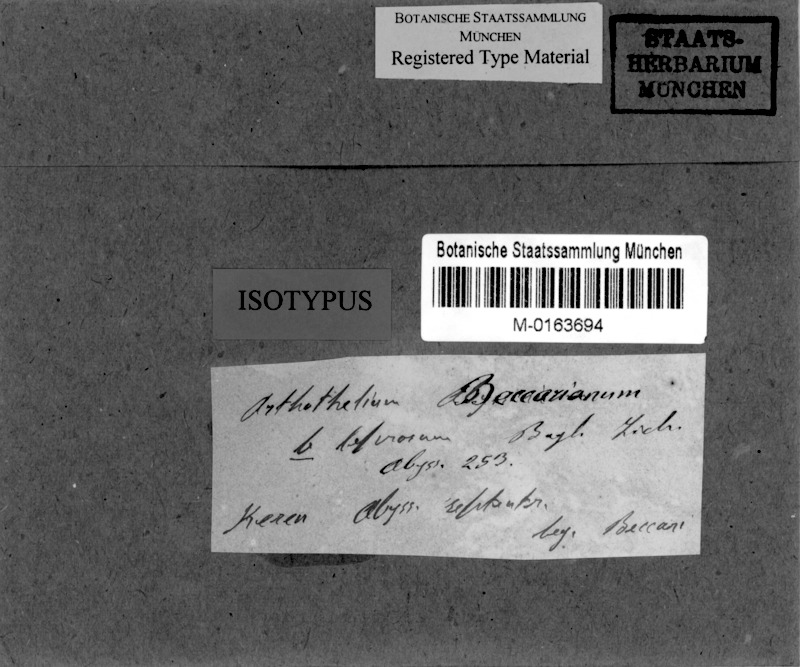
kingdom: Fungi
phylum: Ascomycota
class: Arthoniomycetes
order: Arthoniales
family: Arthoniaceae
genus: Arthonia
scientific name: Arthonia beccariana
